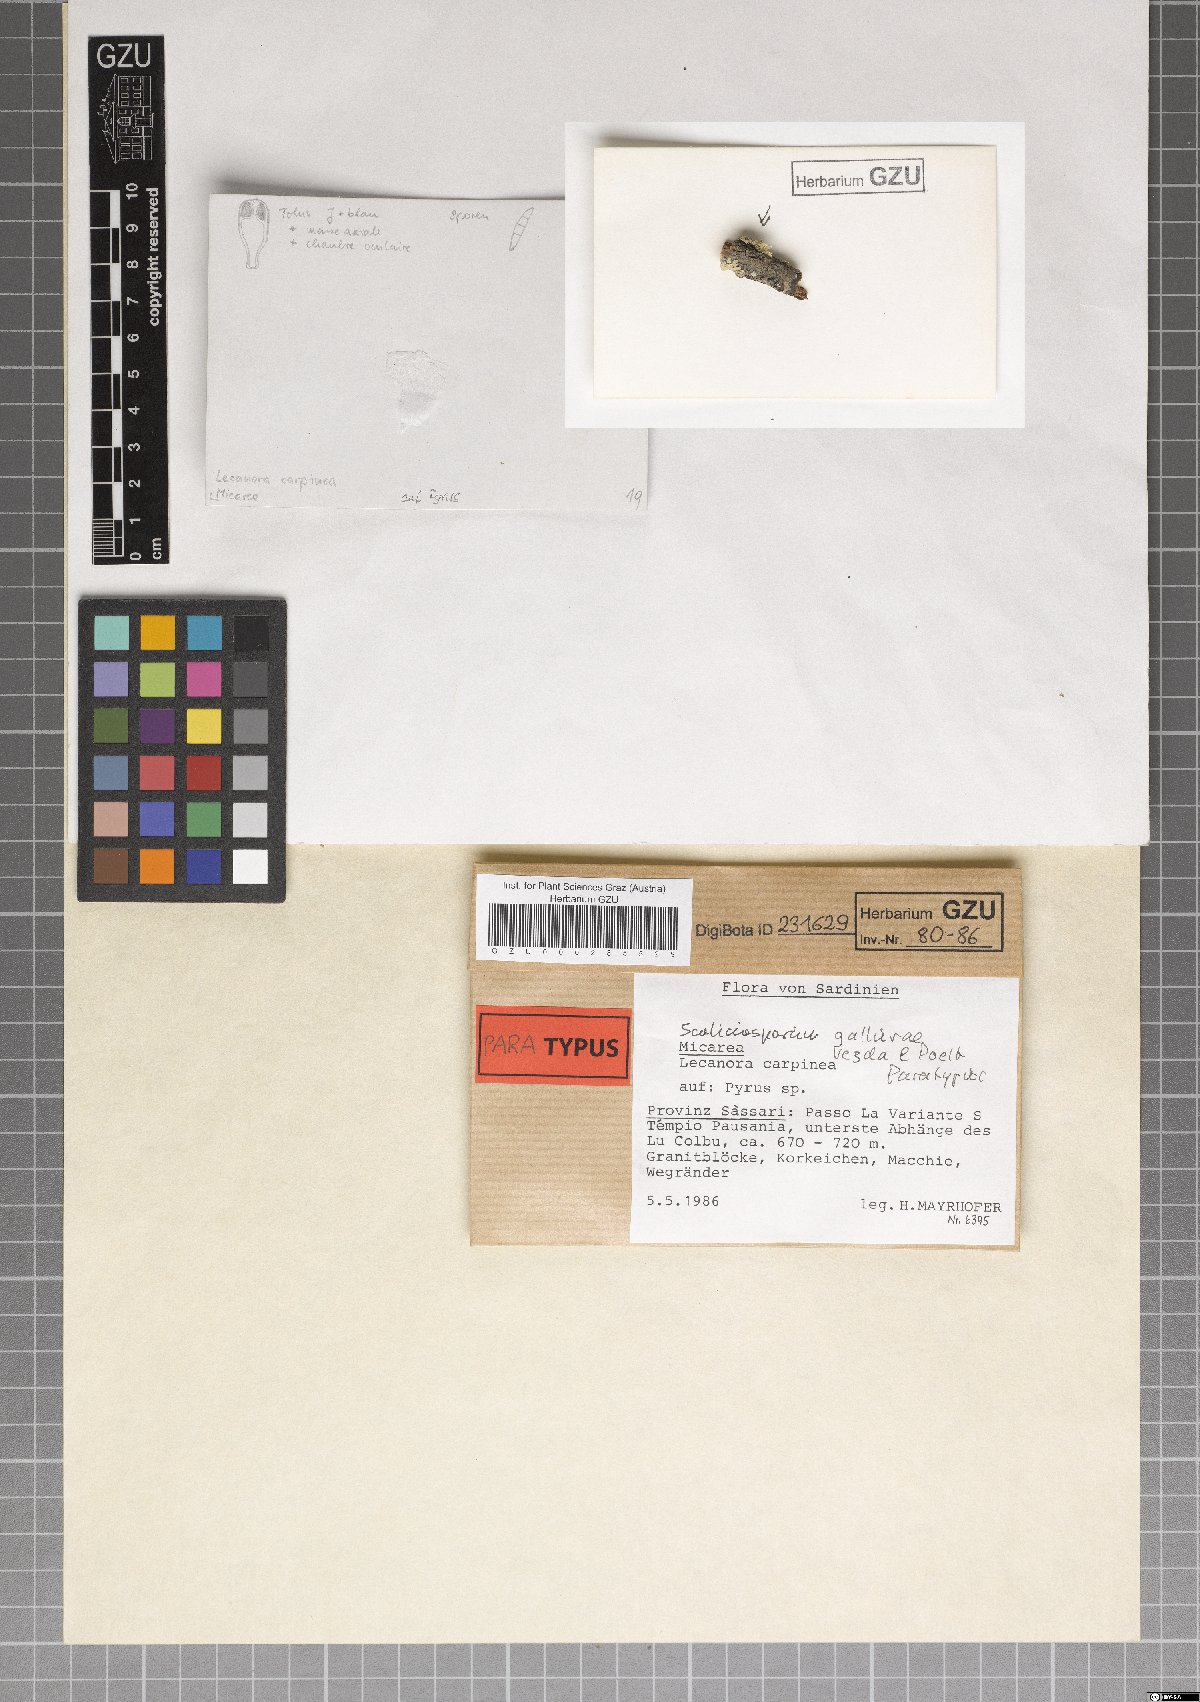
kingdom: Fungi
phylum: Ascomycota
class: Lecanoromycetes
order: Lecanorales
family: Scoliciosporaceae
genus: Scoliciosporum
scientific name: Scoliciosporum gallurae
